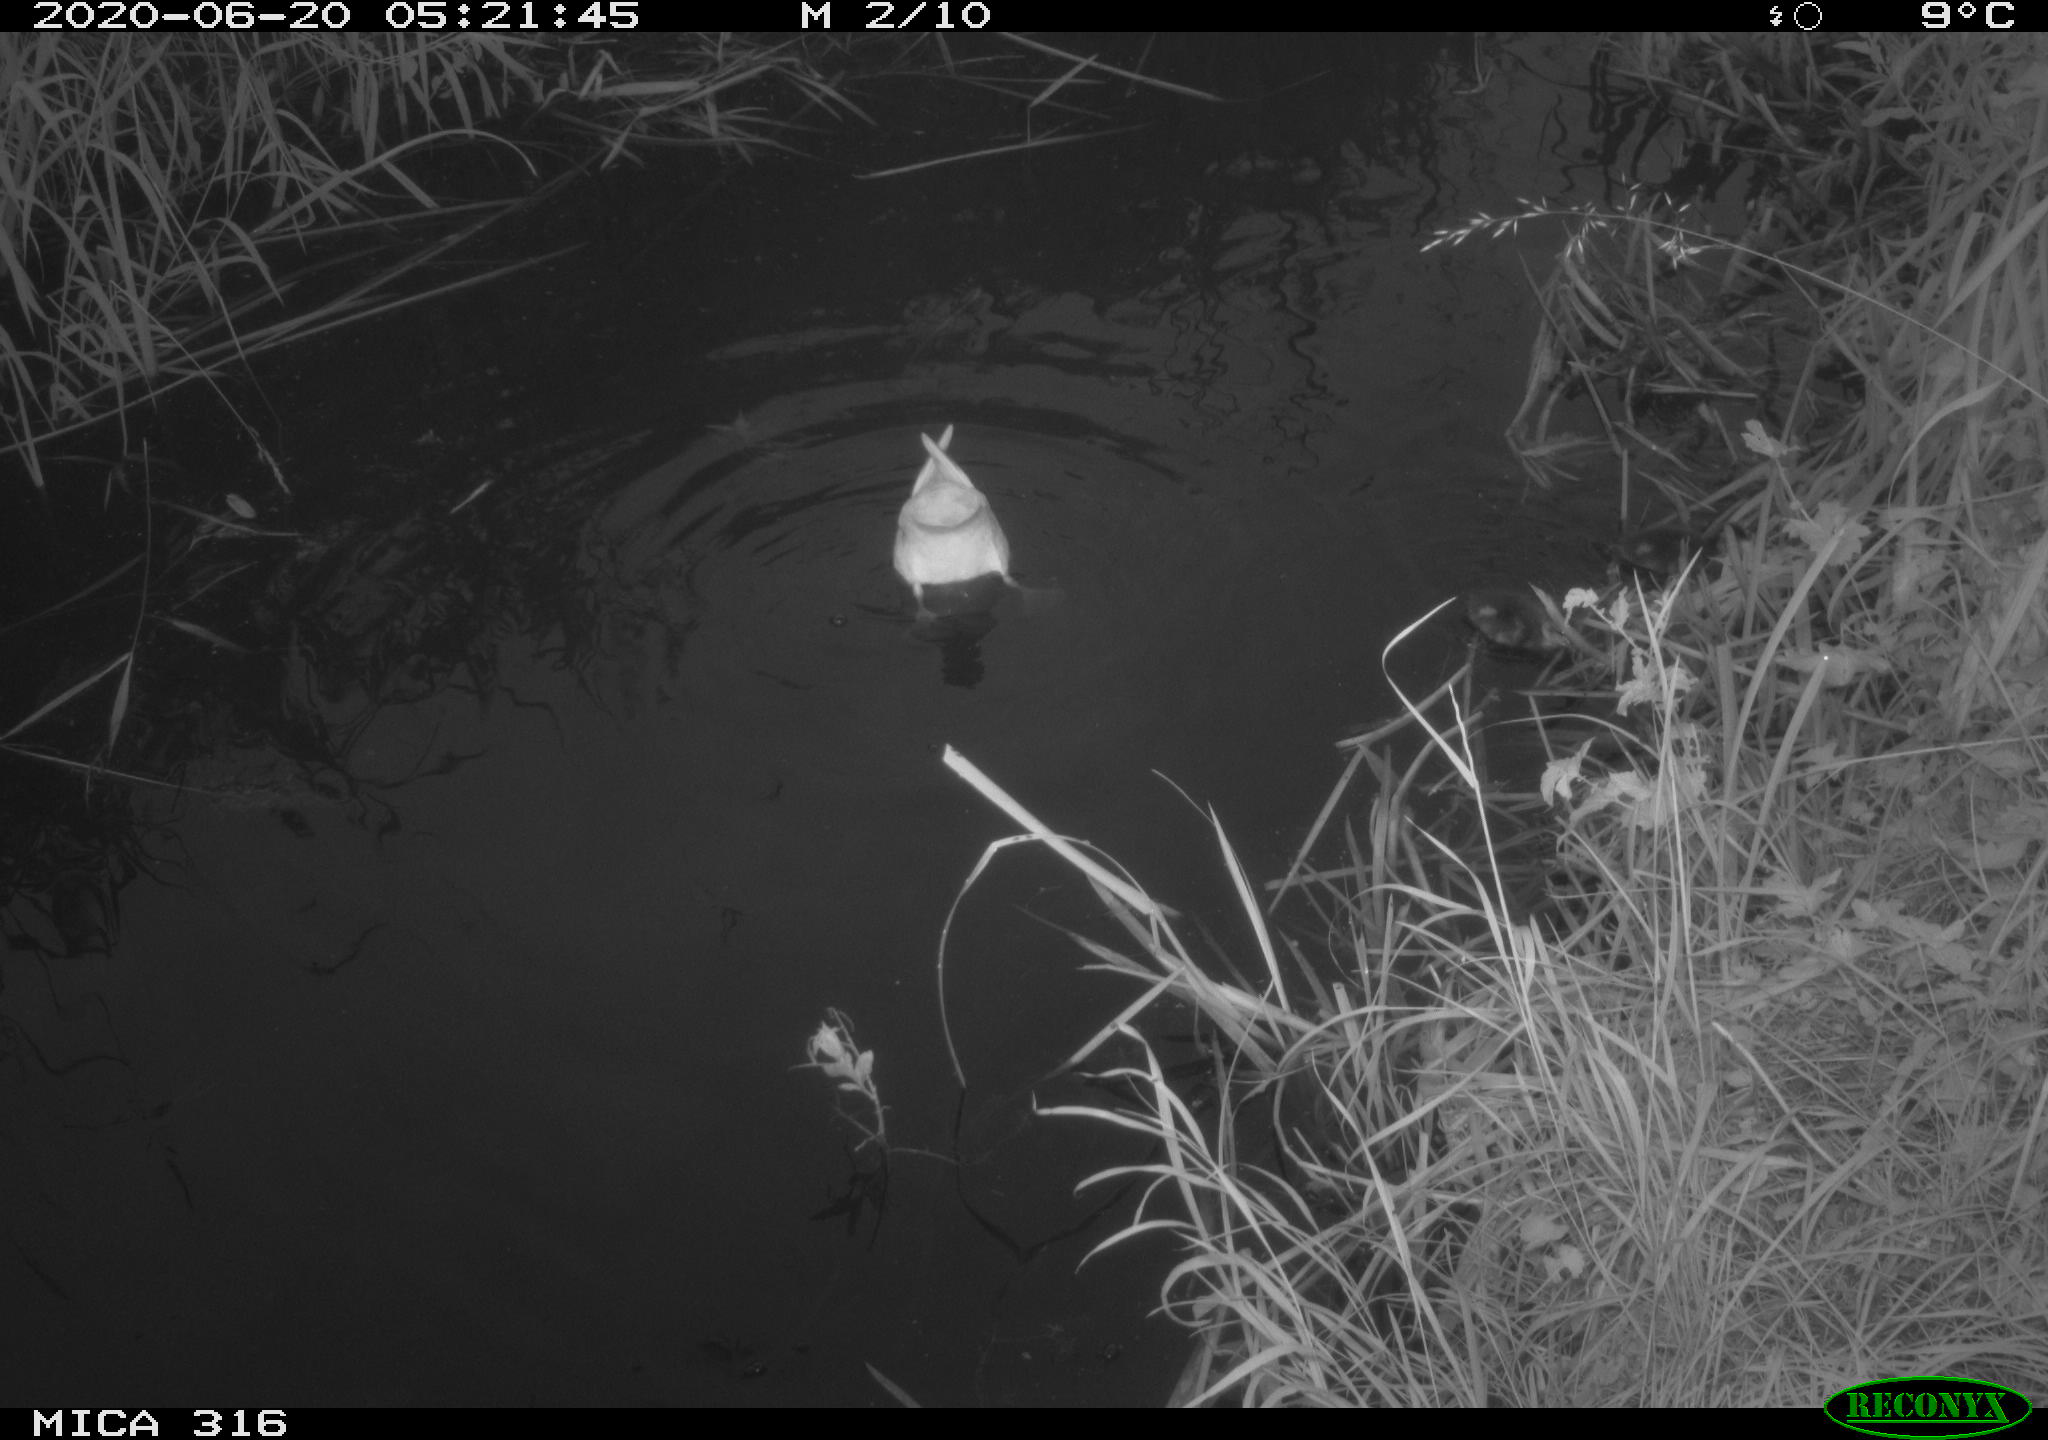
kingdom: Animalia
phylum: Chordata
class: Aves
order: Anseriformes
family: Anatidae
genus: Anas
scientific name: Anas platyrhynchos
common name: Mallard
